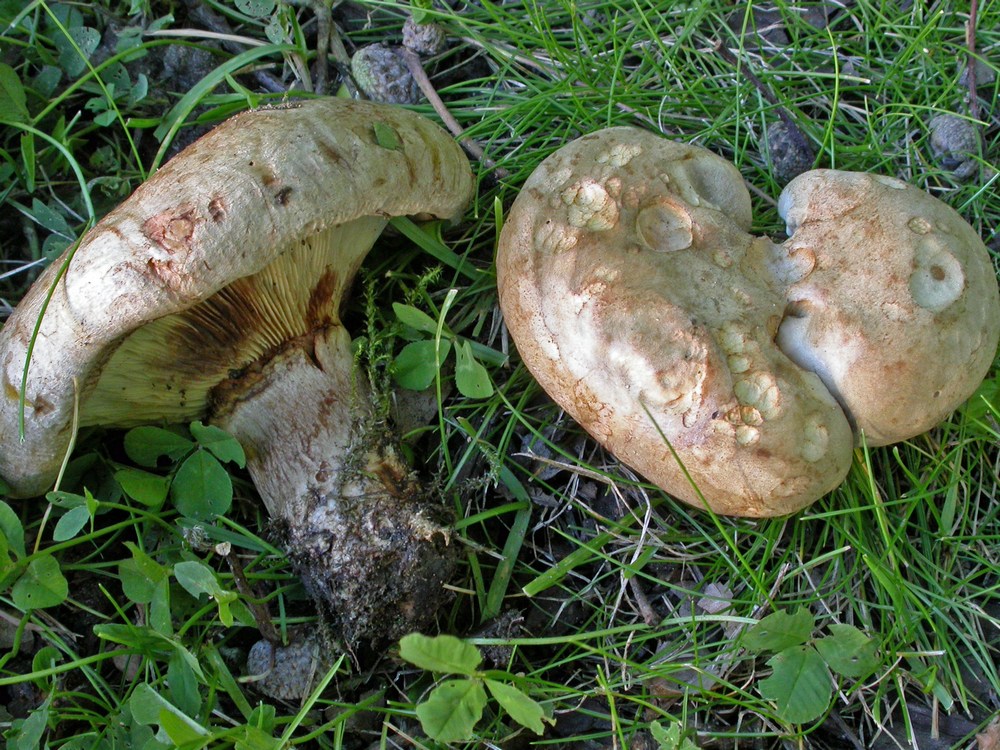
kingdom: Fungi
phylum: Basidiomycota
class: Agaricomycetes
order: Boletales
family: Paxillaceae
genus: Paxillus
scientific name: Paxillus obscurisporus
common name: mahognisporet netbladhat
